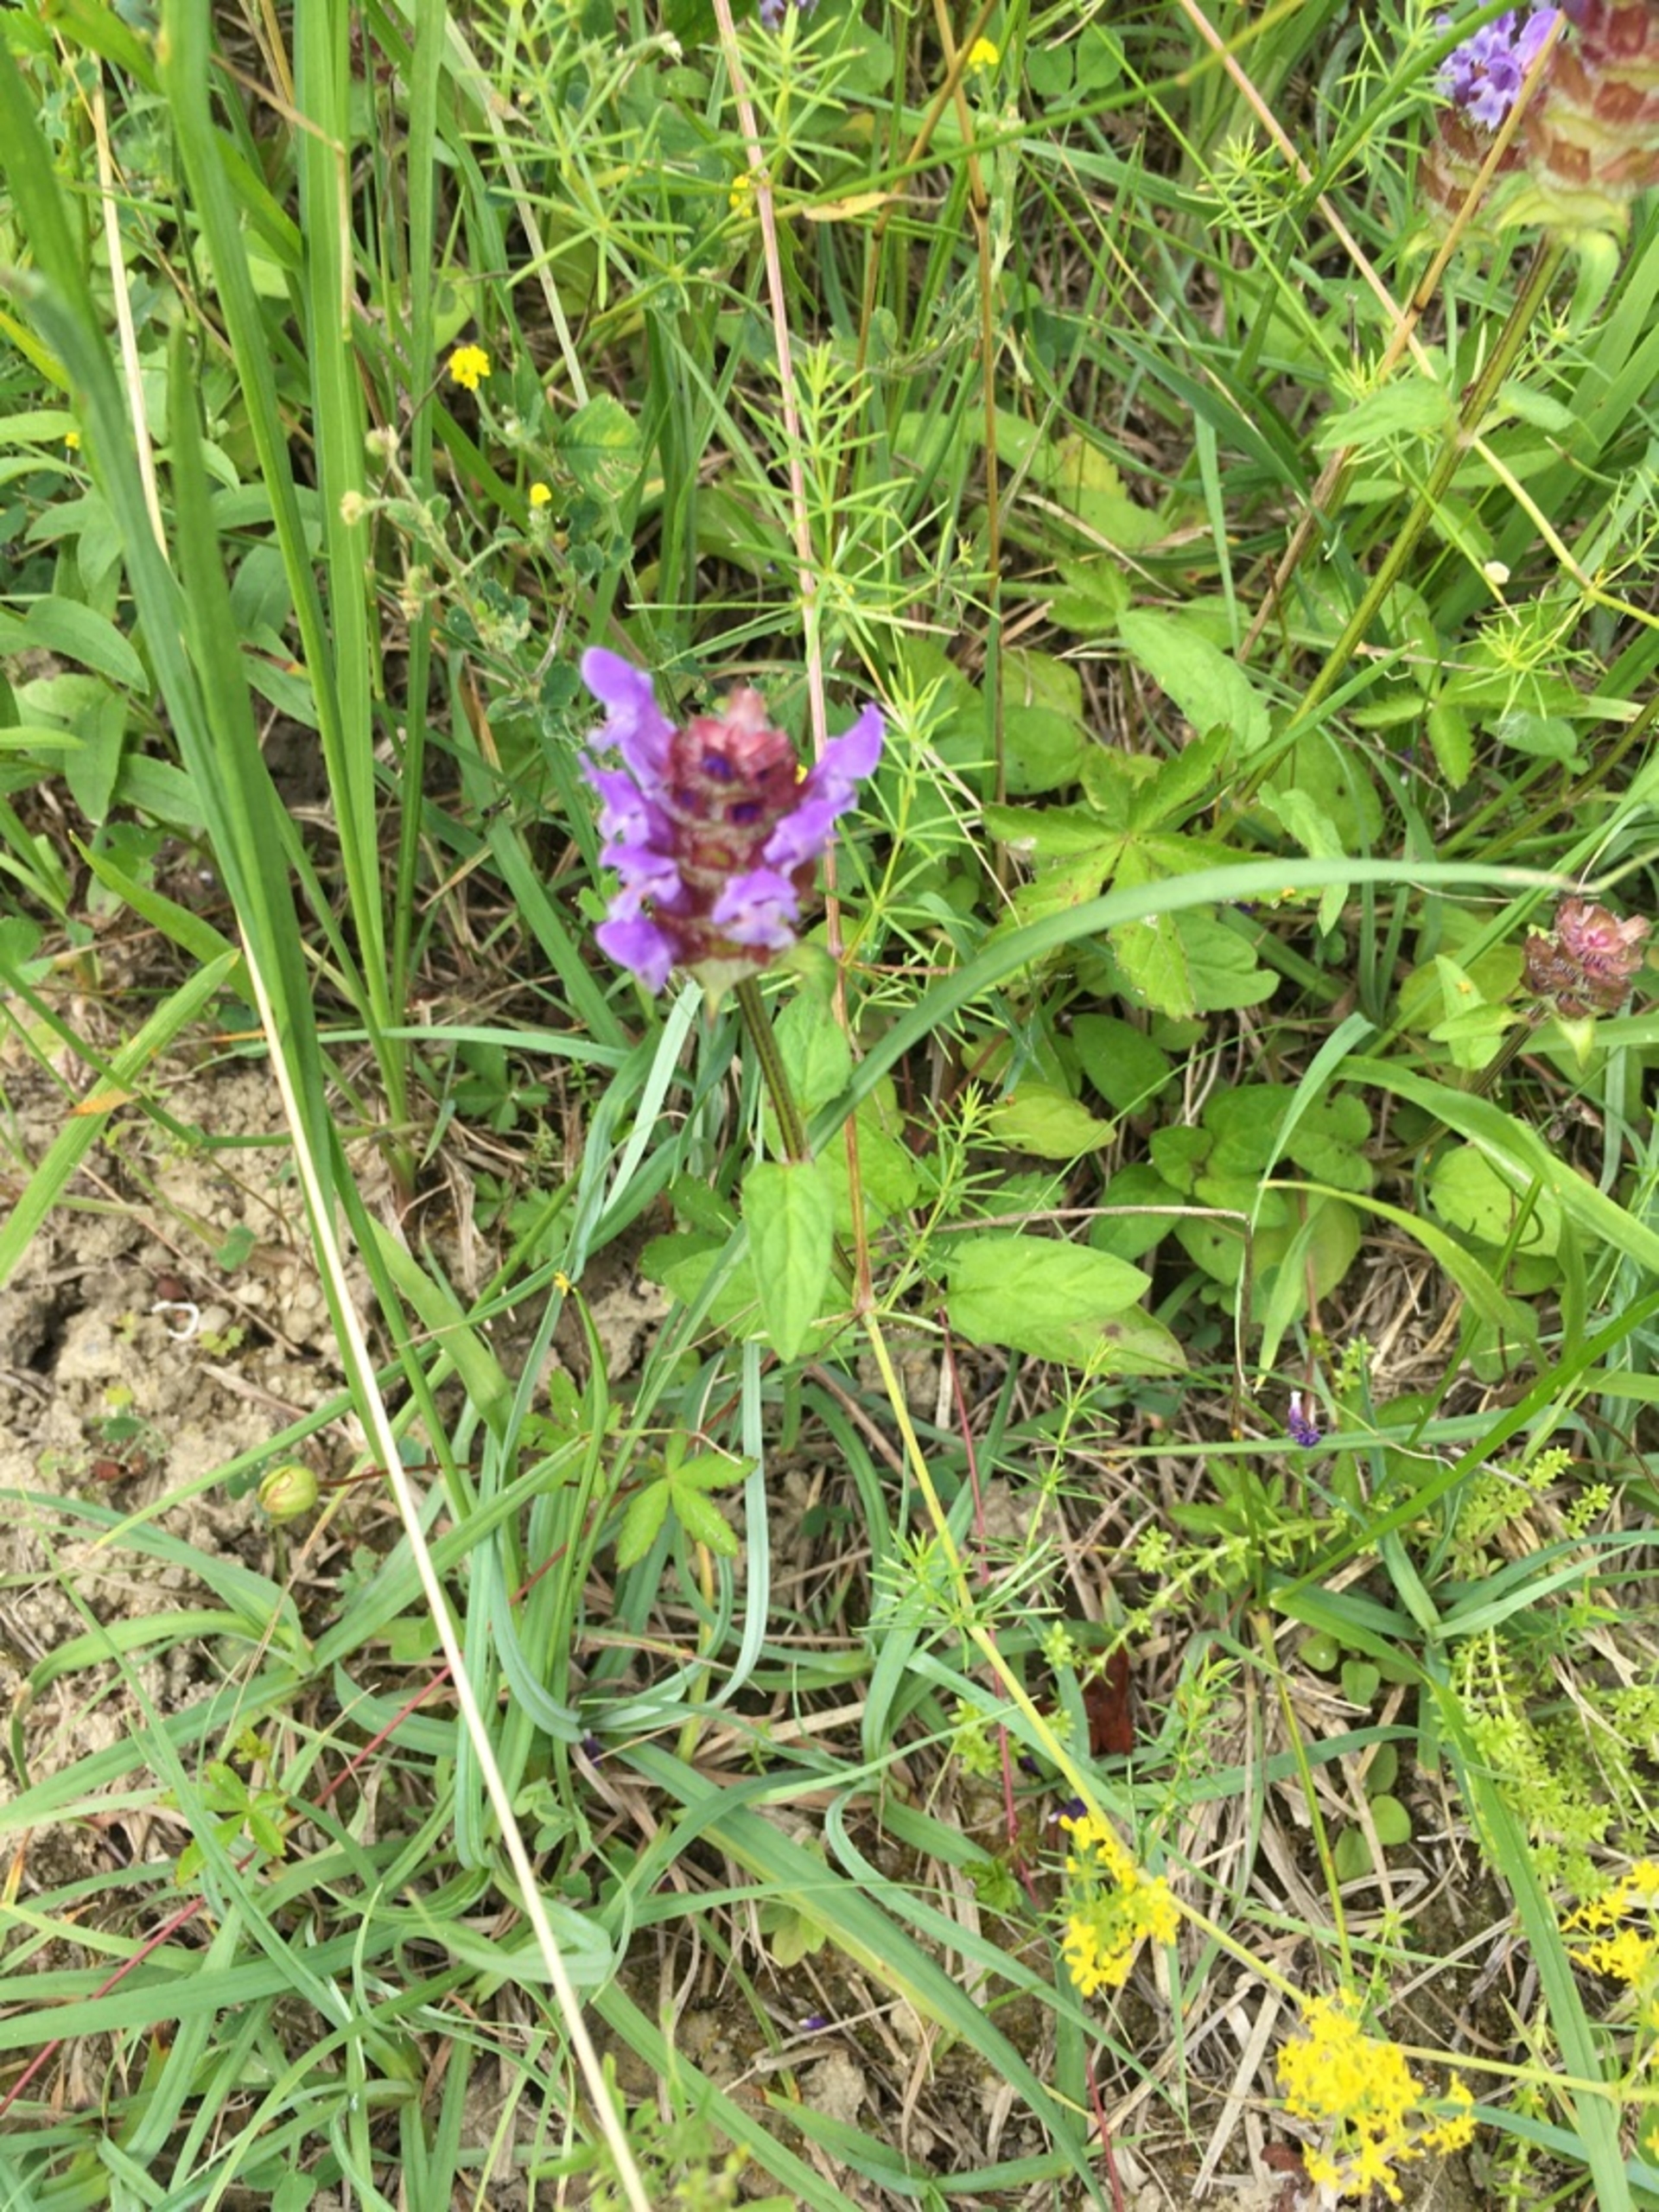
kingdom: Plantae
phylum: Tracheophyta
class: Magnoliopsida
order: Lamiales
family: Lamiaceae
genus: Prunella
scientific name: Prunella vulgaris
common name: Almindelig brunelle
